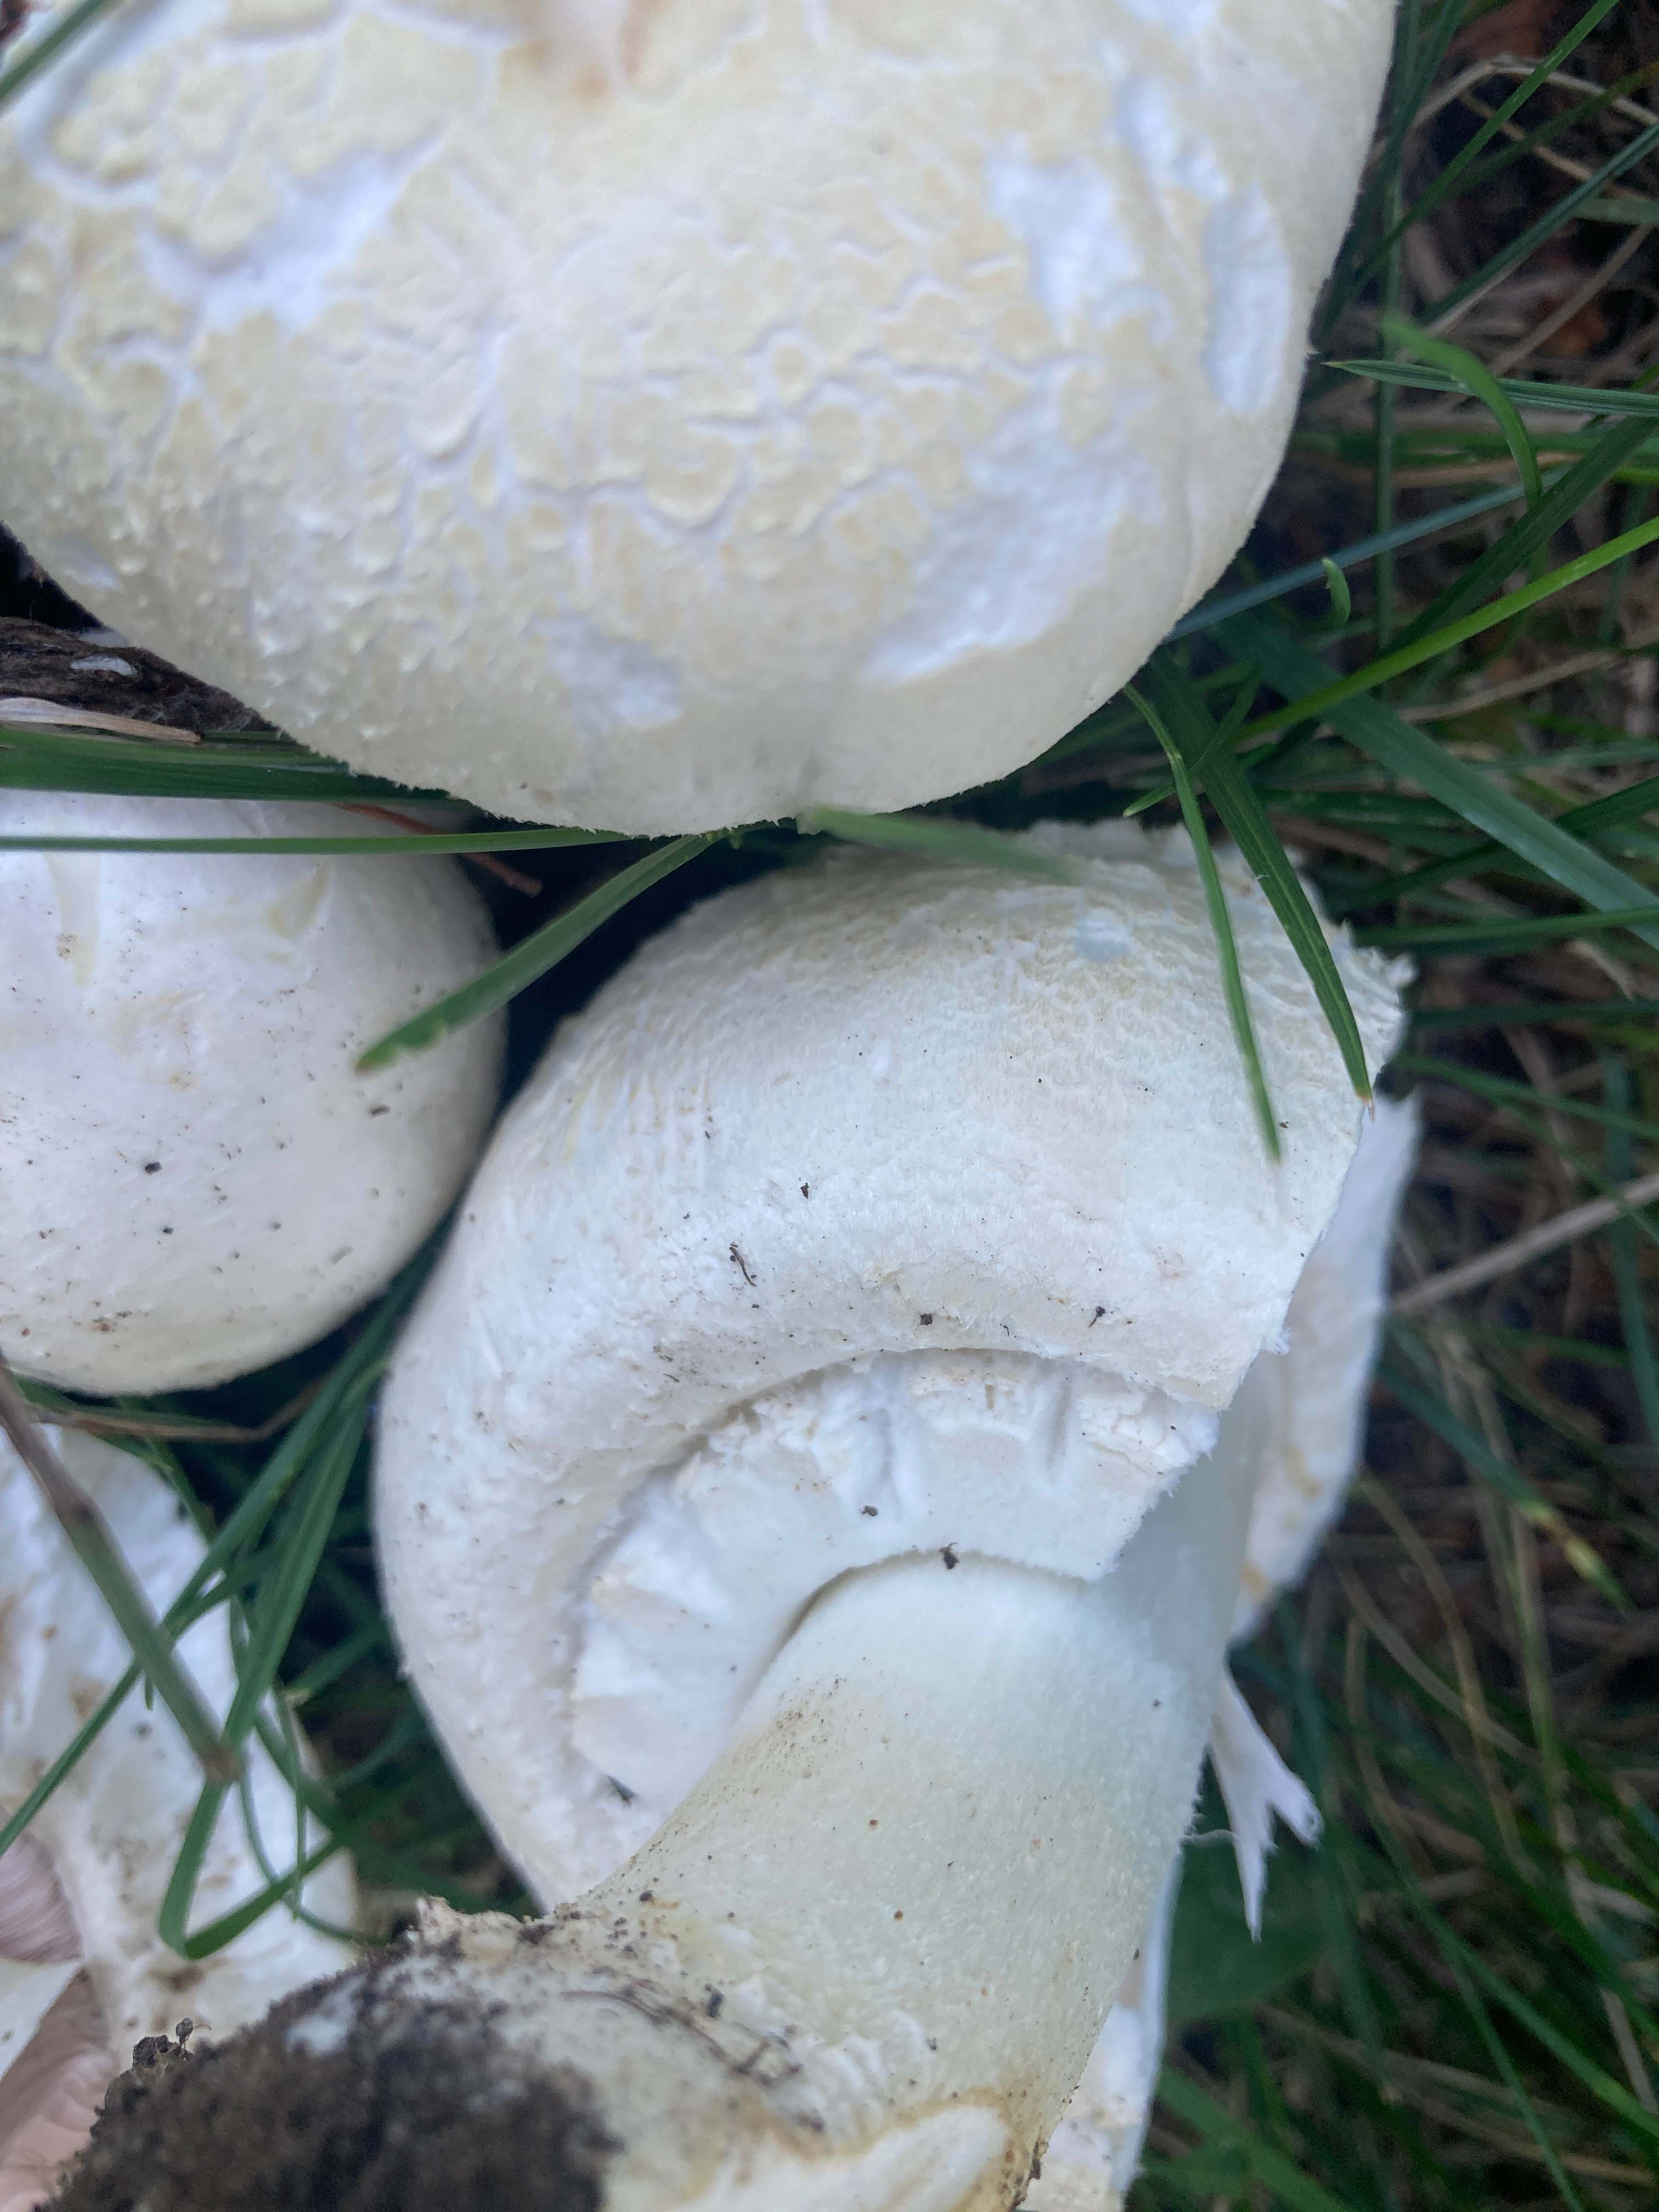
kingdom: Fungi
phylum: Basidiomycota
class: Agaricomycetes
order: Agaricales
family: Agaricaceae
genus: Agaricus
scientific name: Agaricus arvensis
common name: ager-champignon
